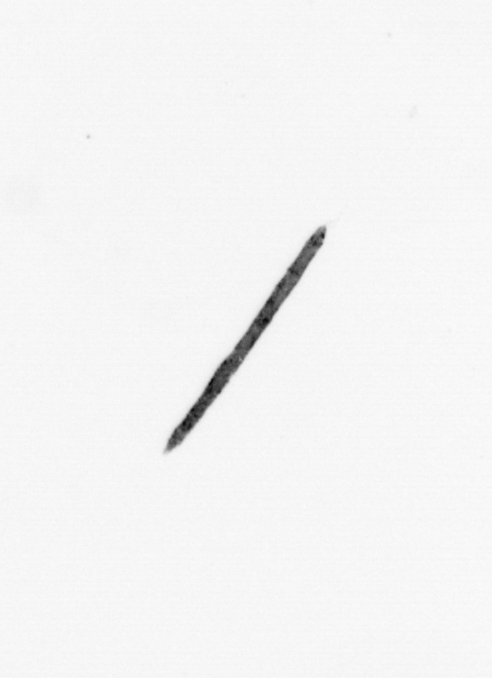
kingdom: Bacteria
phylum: Cyanobacteria
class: Cyanobacteriia
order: Cyanobacteriales
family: Microcoleaceae
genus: Trichodesmium
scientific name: Trichodesmium
